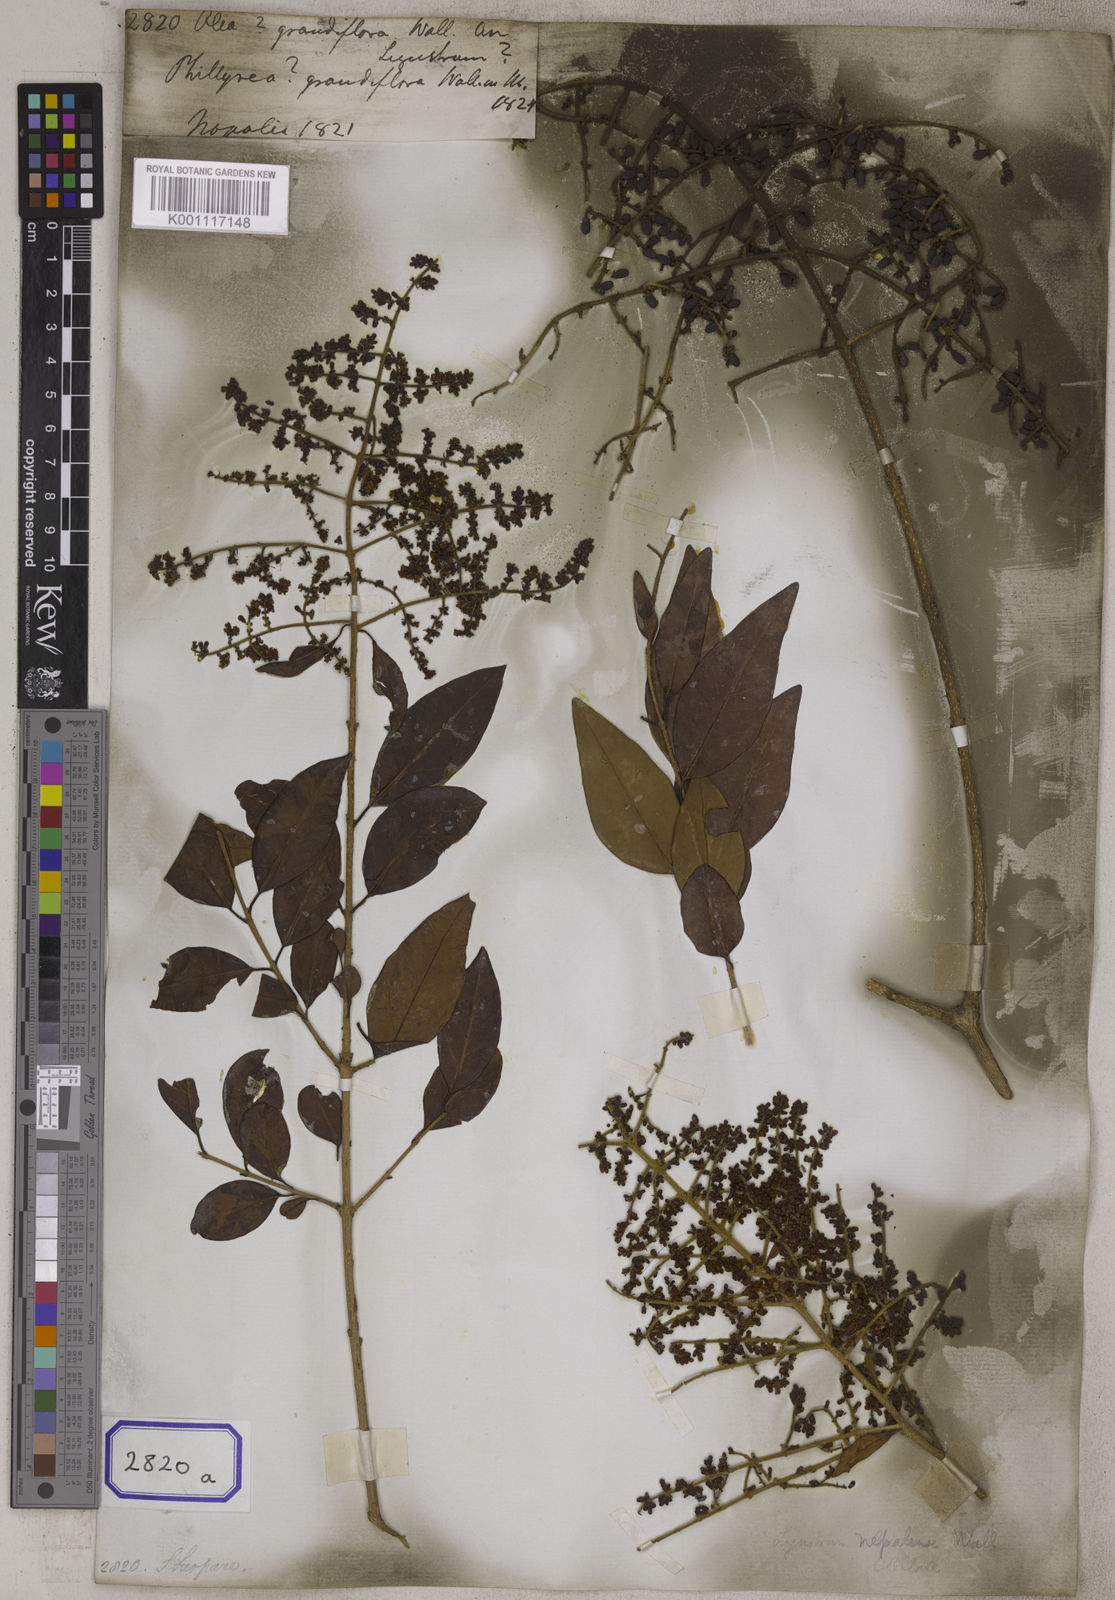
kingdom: Plantae
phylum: Tracheophyta
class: Magnoliopsida
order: Lamiales
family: Oleaceae
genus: Olea
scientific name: Olea
